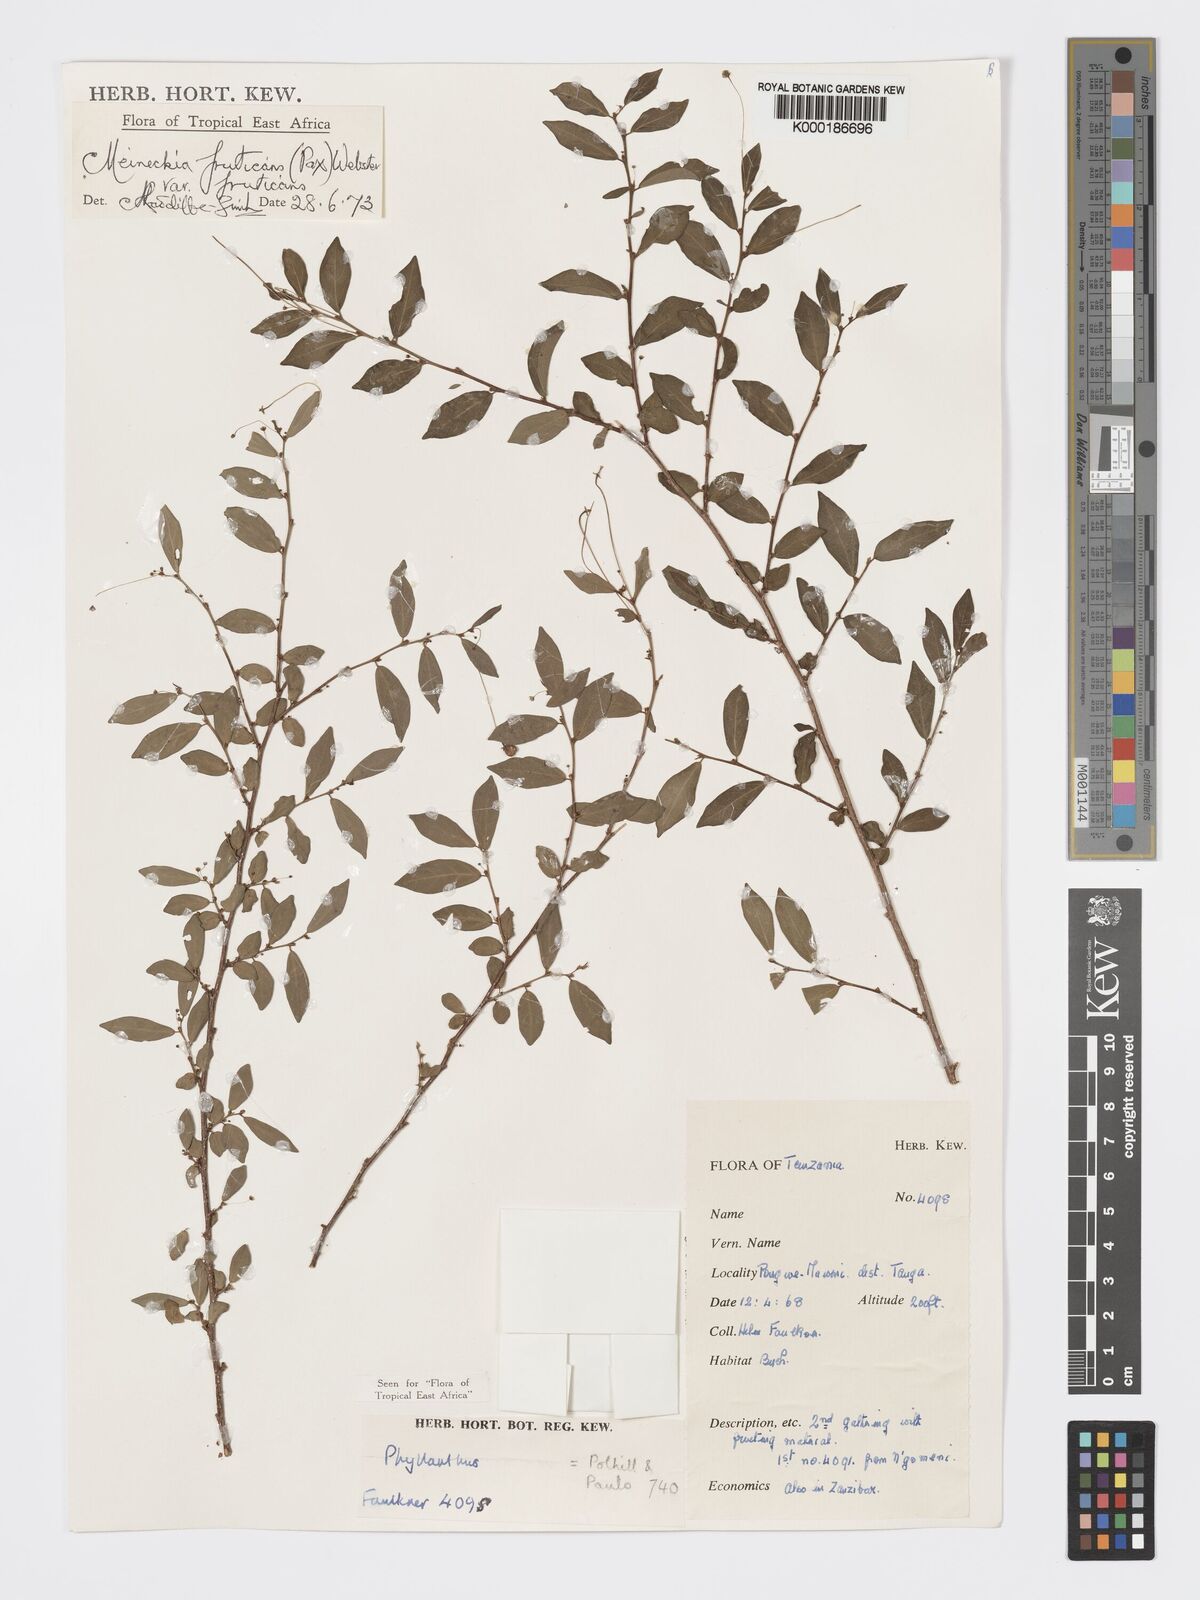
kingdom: Plantae
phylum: Tracheophyta
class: Magnoliopsida
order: Malpighiales
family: Phyllanthaceae
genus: Meineckia
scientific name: Meineckia fruticans
